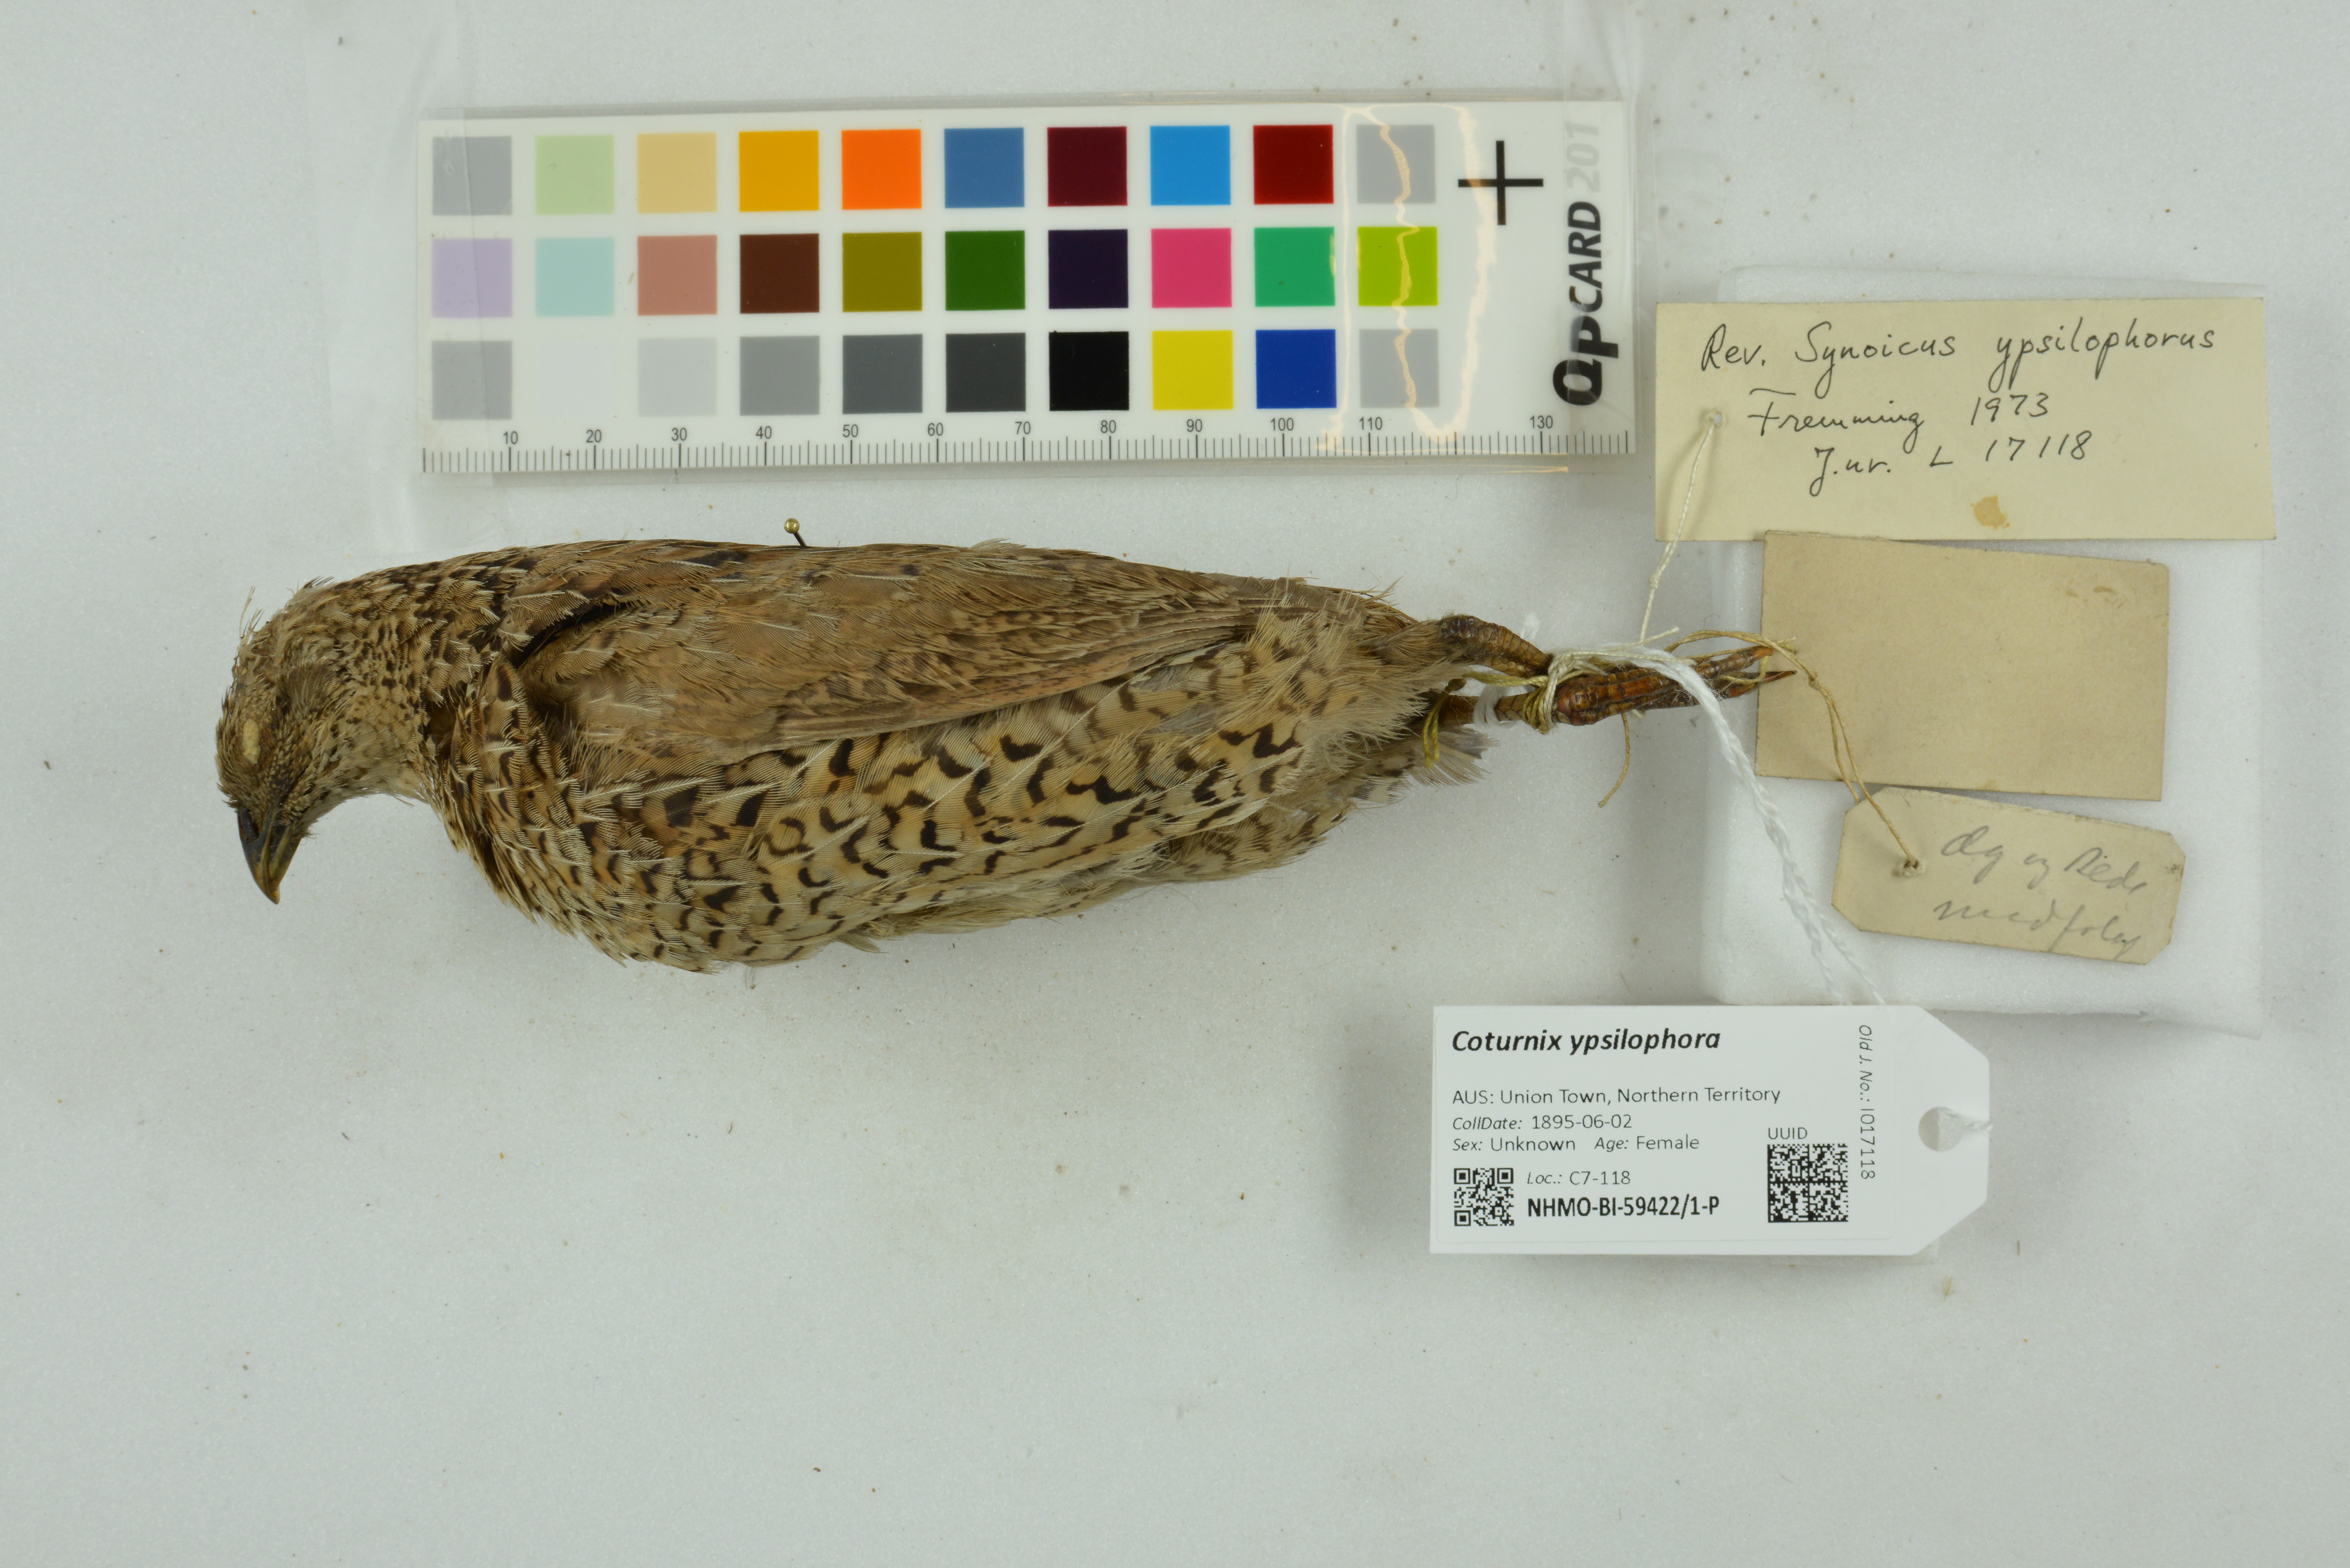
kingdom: Animalia
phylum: Chordata
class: Aves
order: Galliformes
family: Phasianidae
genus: Synoicus
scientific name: Synoicus ypsilophorus
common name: Brown quail
